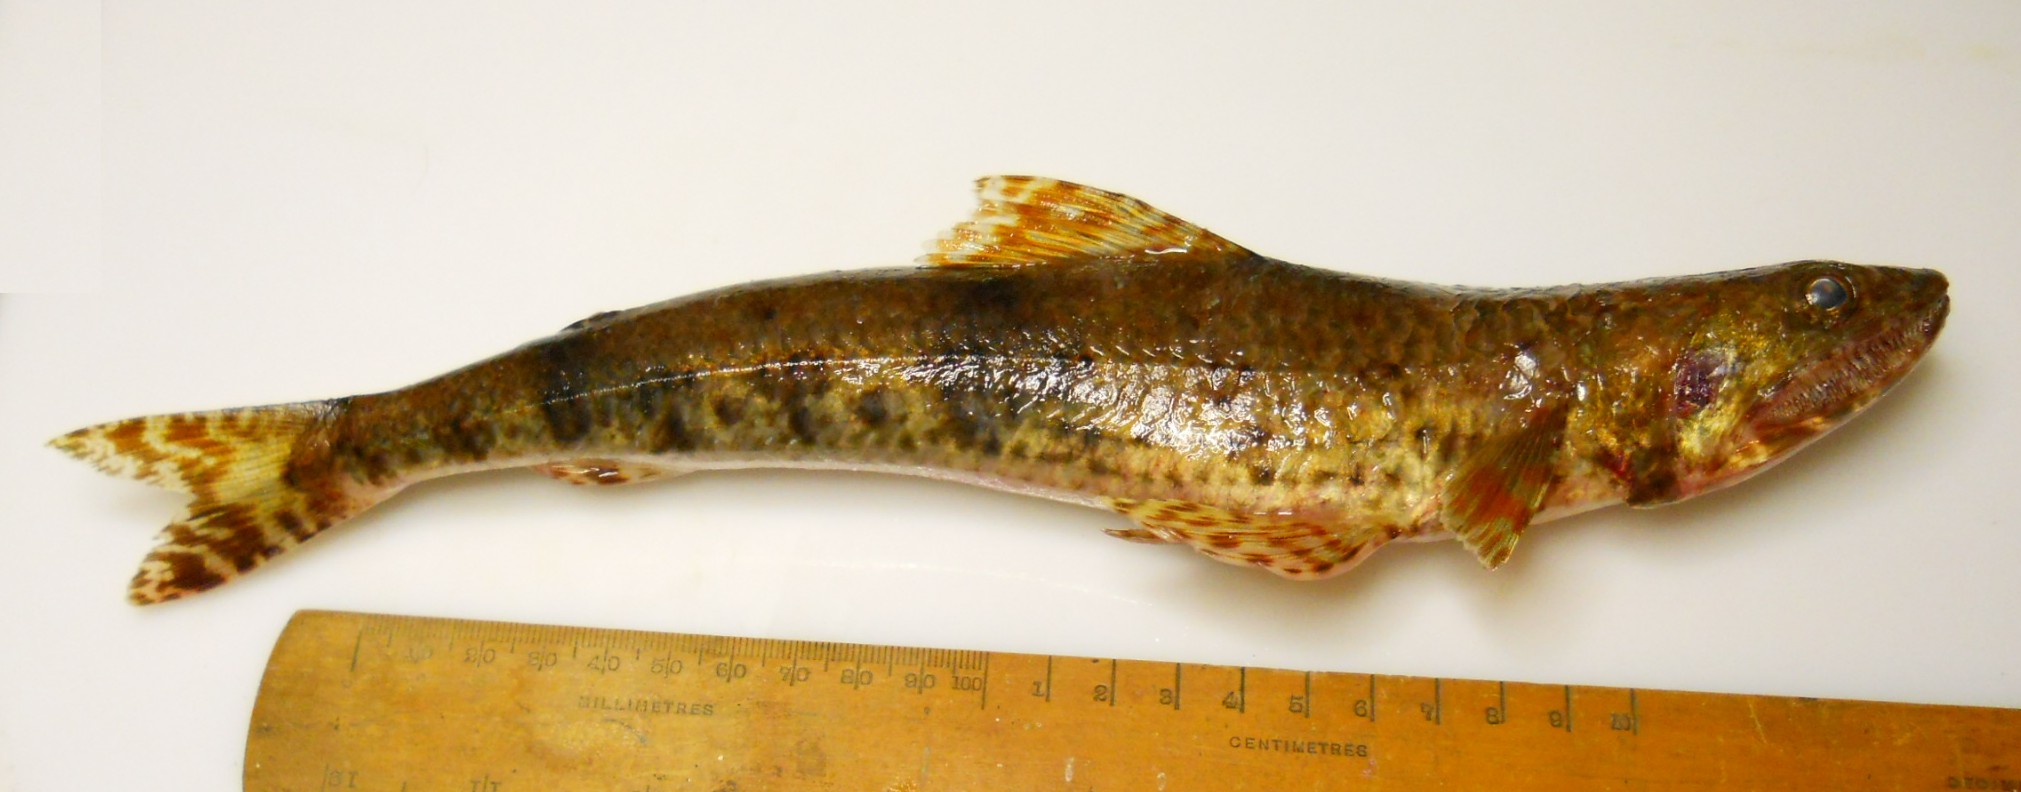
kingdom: Animalia
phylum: Chordata
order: Aulopiformes
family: Synodontidae
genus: Saurida
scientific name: Saurida gracilis
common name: Slender lizardfish
